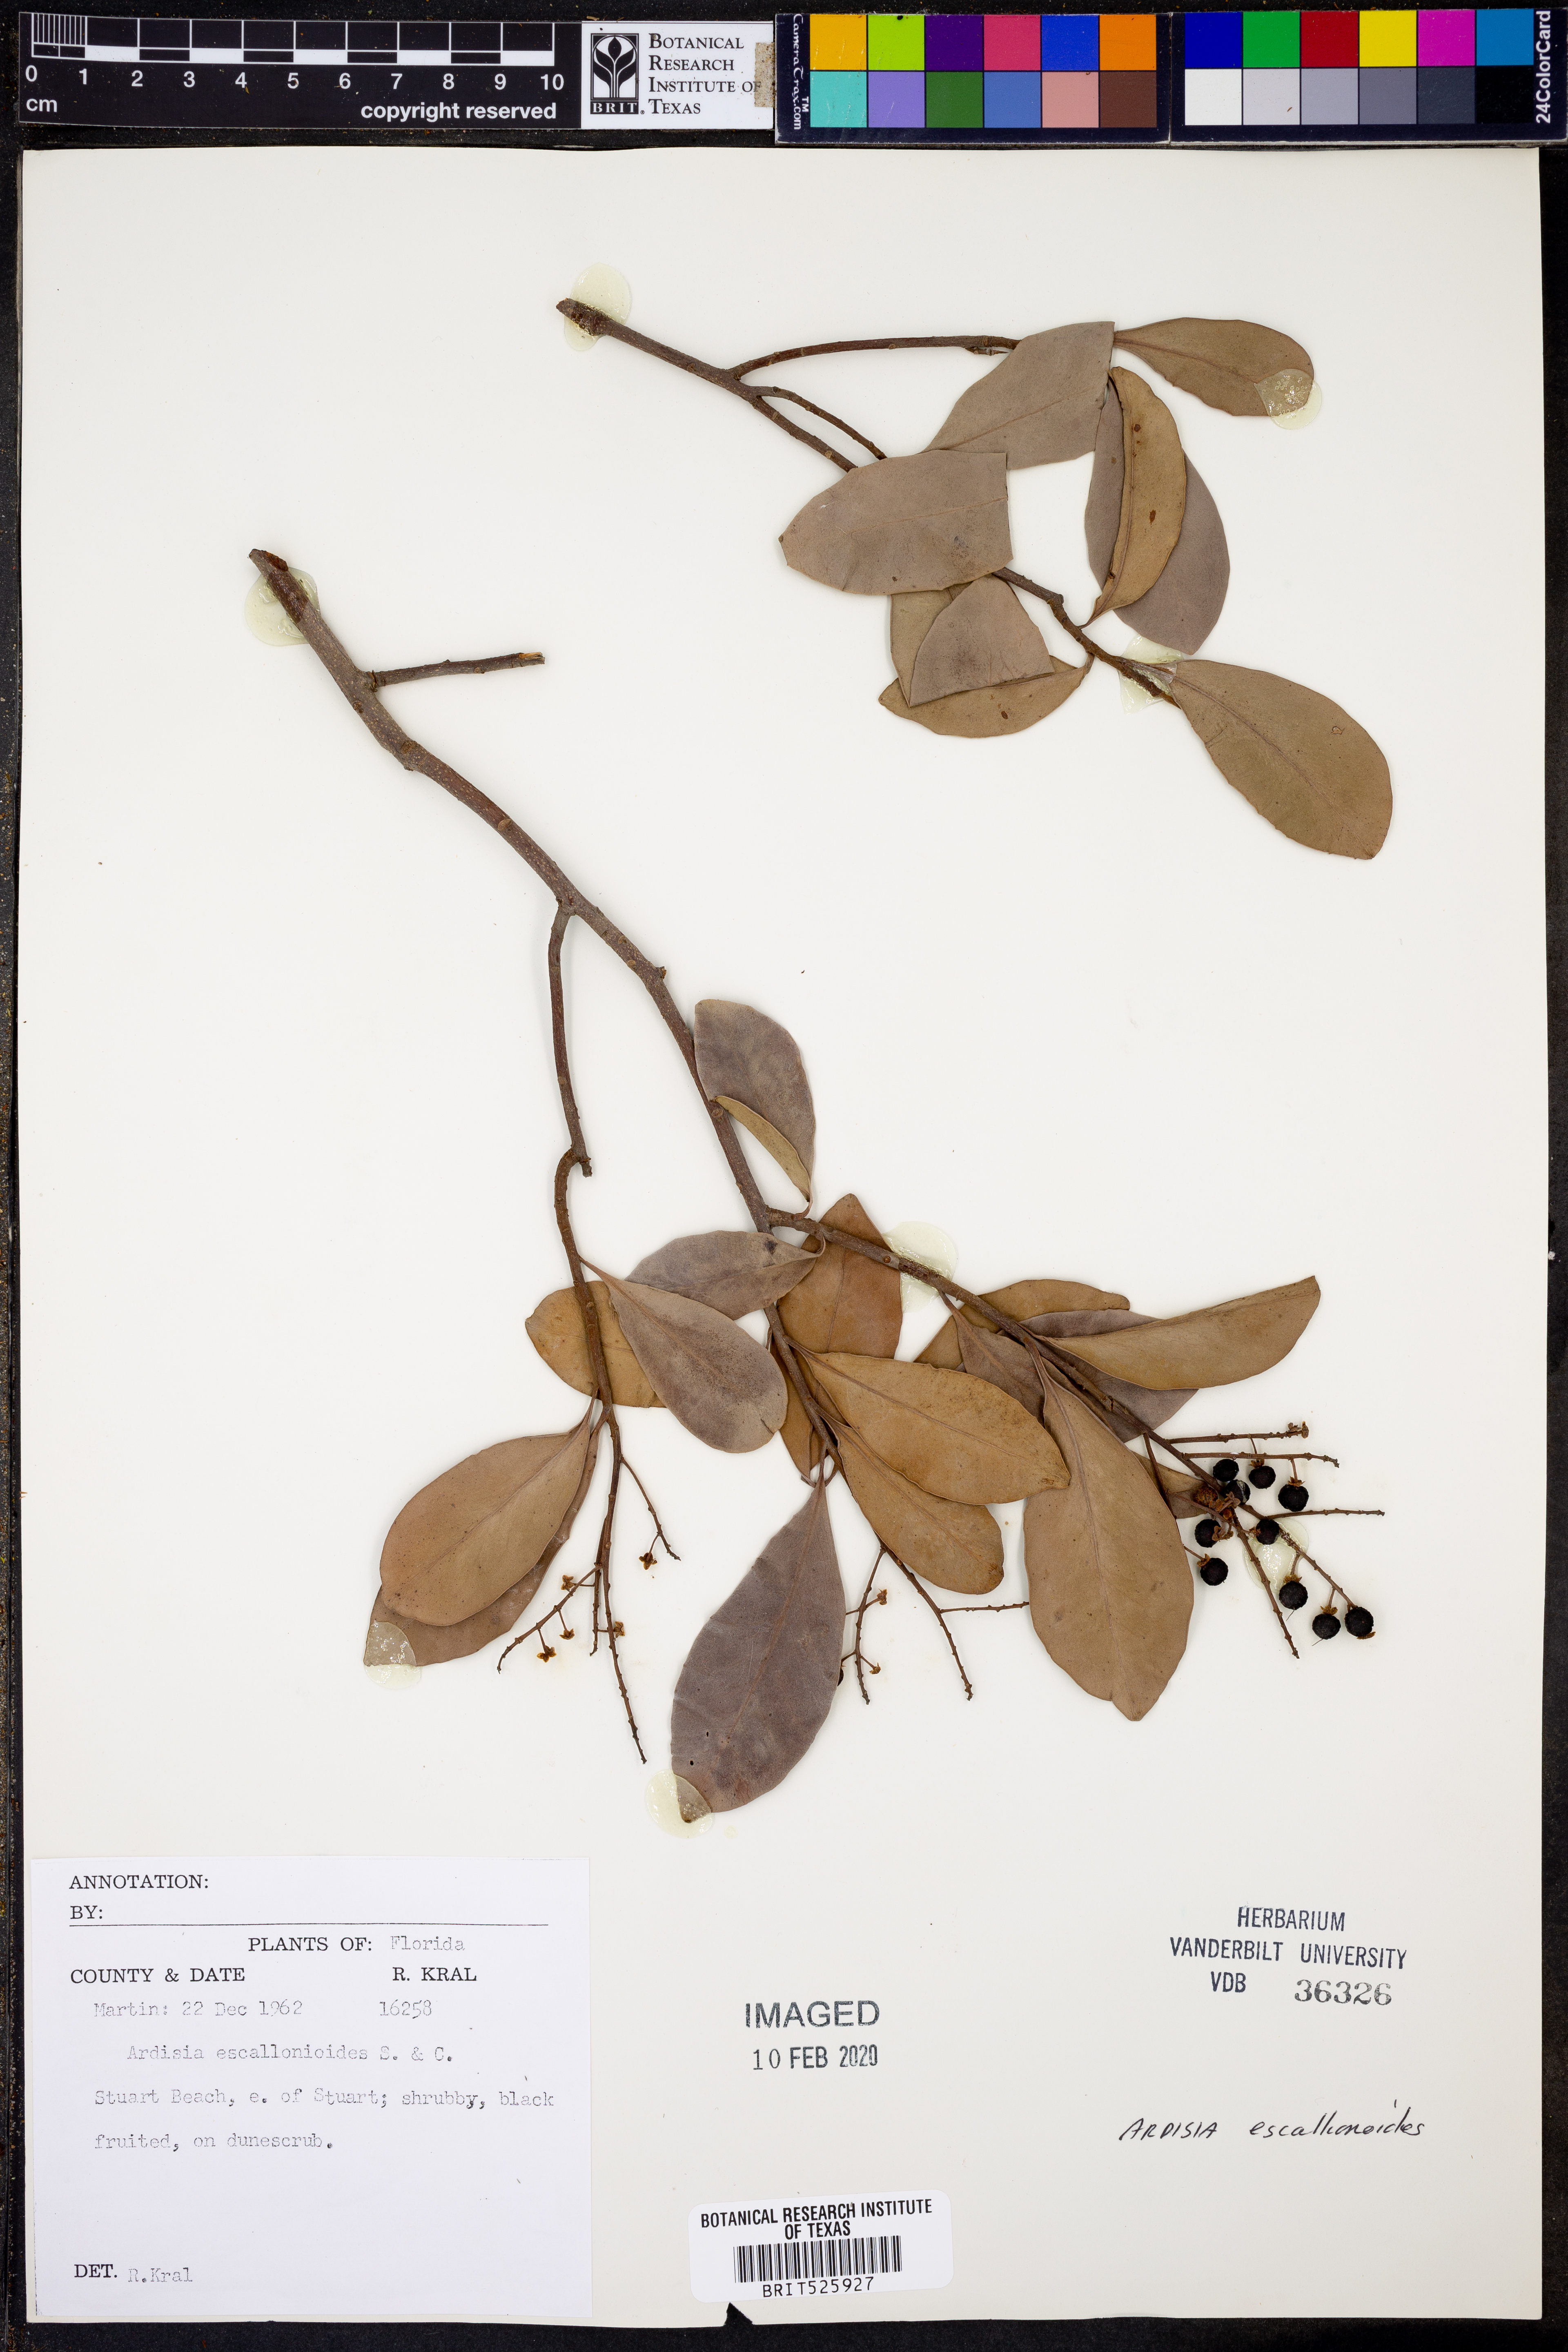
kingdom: Plantae
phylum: Tracheophyta
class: Magnoliopsida
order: Ericales
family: Primulaceae
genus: Ardisia
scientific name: Ardisia escallonioides
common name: Island marlberry
